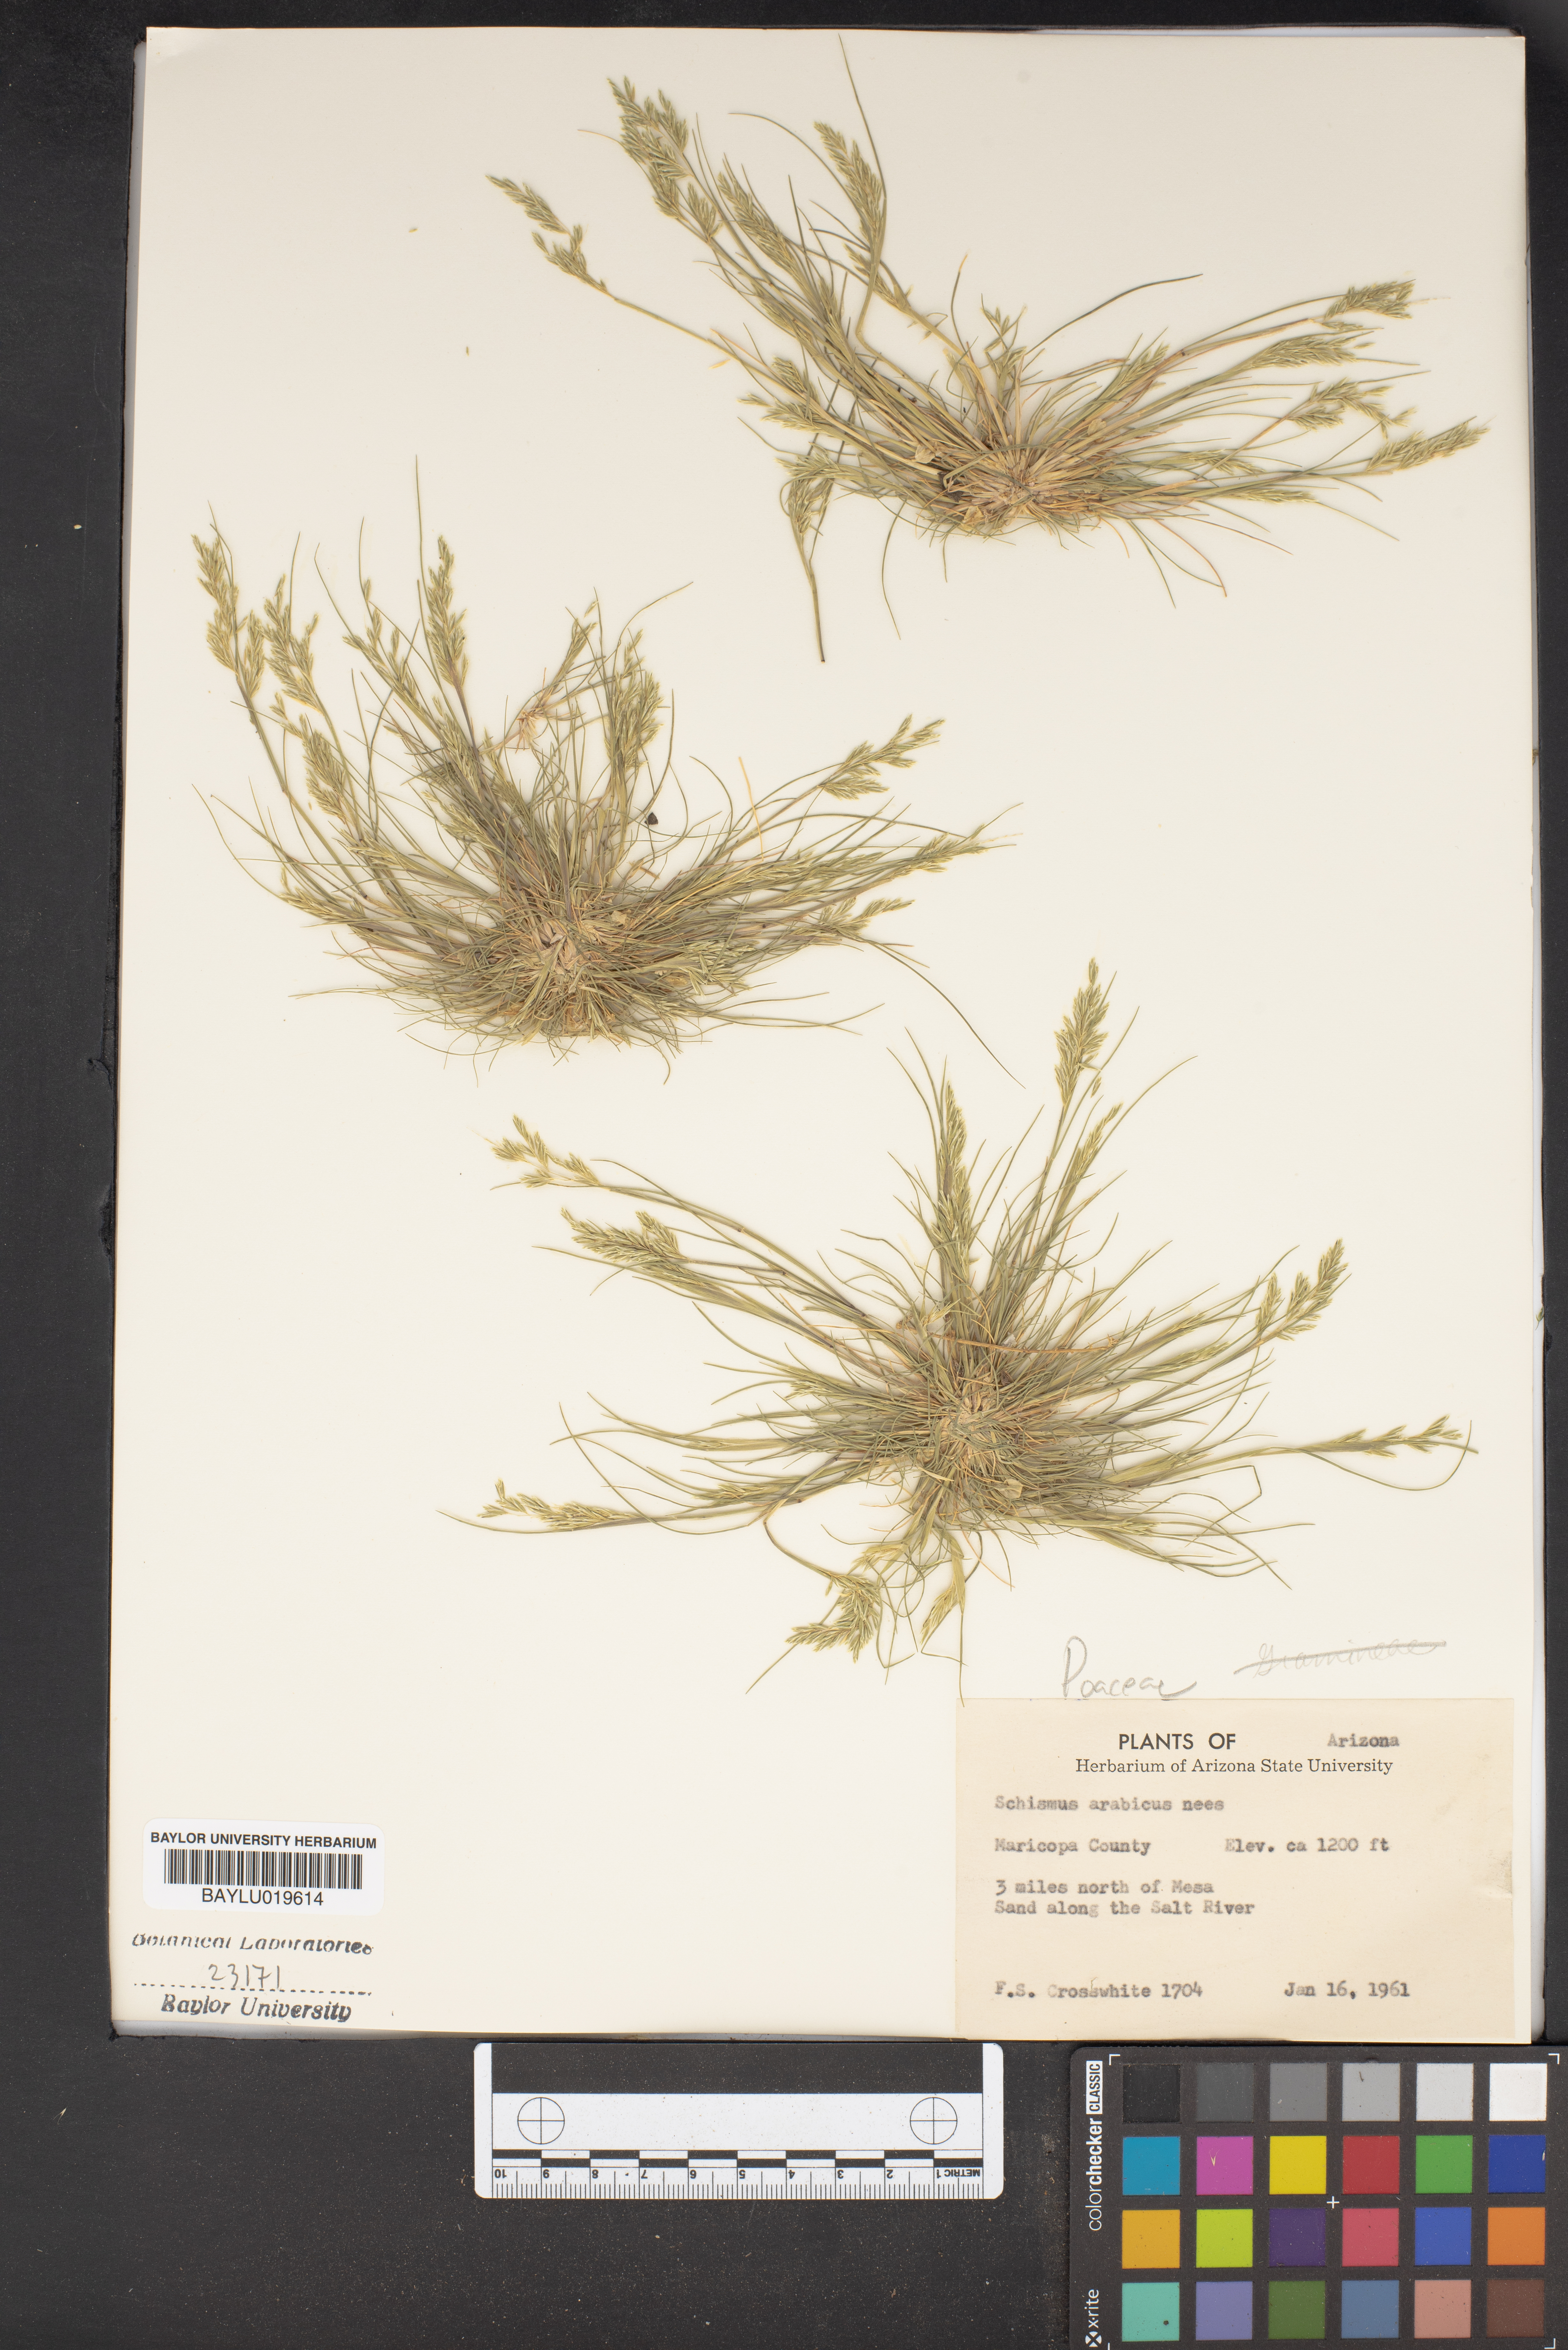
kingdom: Plantae
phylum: Tracheophyta
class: Liliopsida
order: Poales
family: Poaceae
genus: Schismus
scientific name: Schismus arabicus
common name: Arabian schismus
